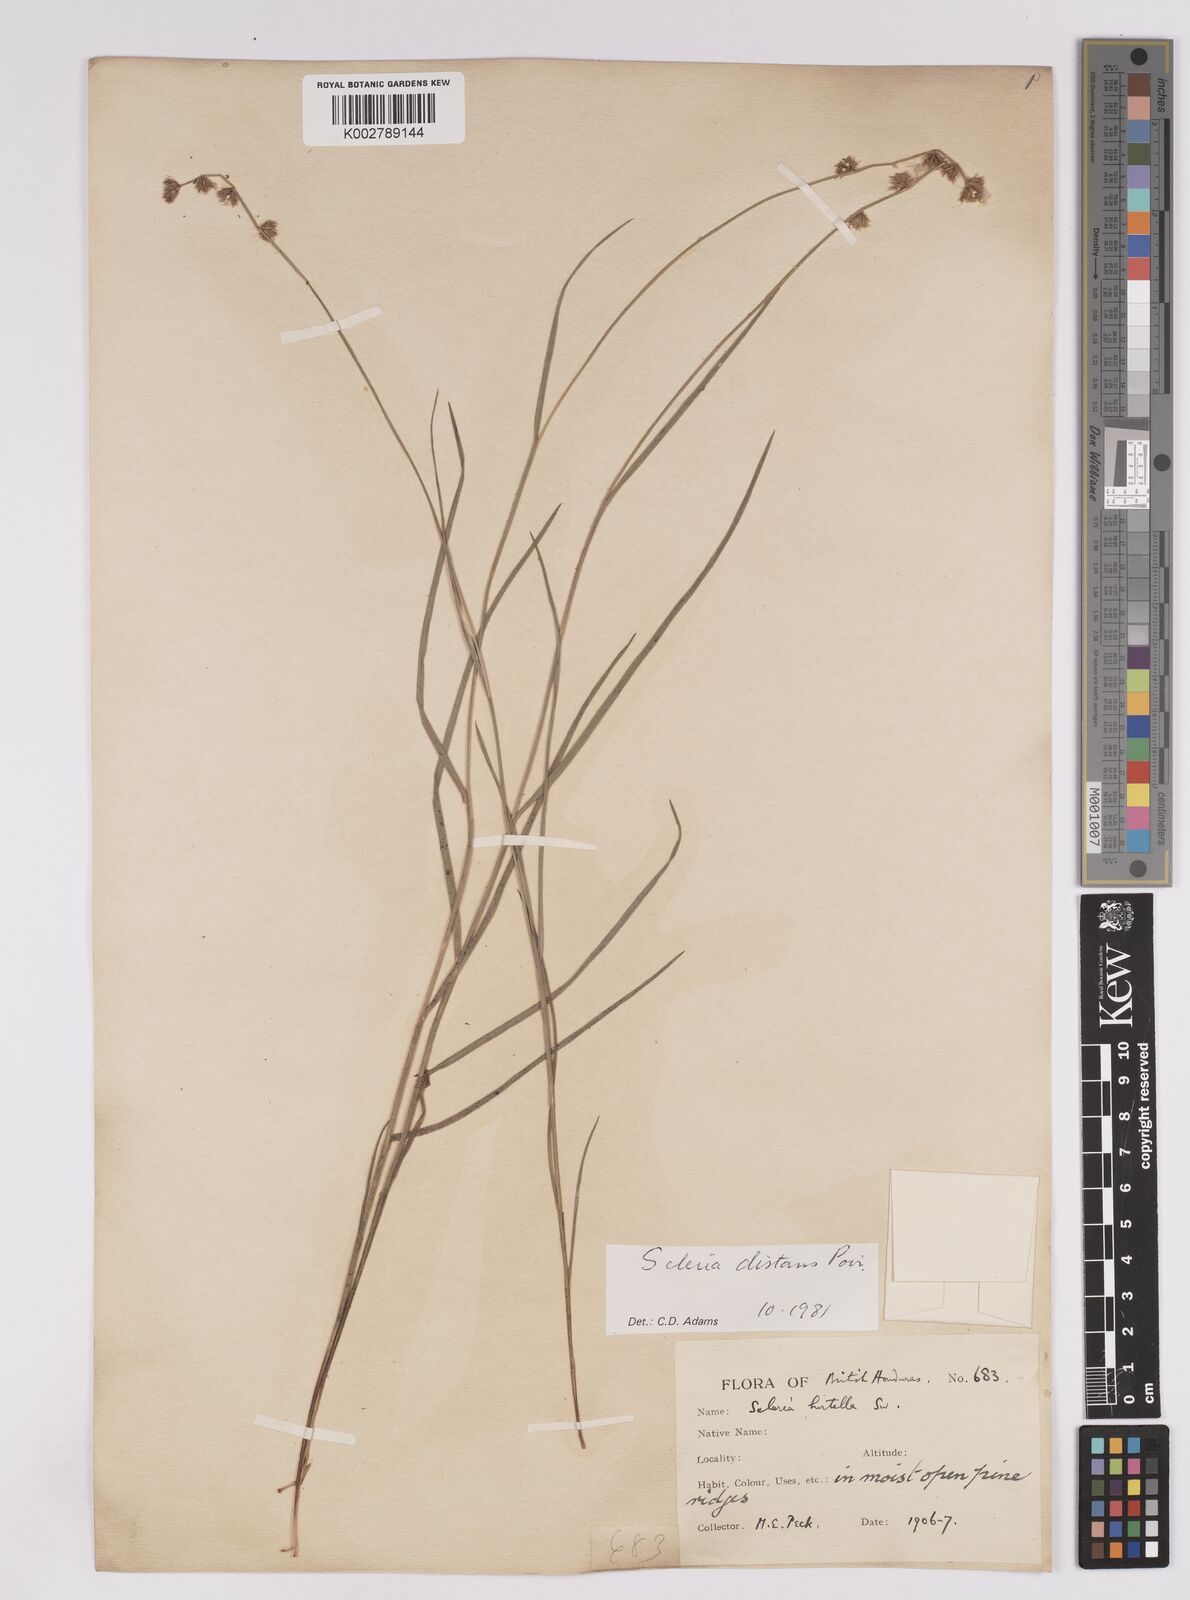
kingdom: Plantae
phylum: Tracheophyta
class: Liliopsida
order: Poales
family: Cyperaceae
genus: Scleria
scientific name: Scleria distans
